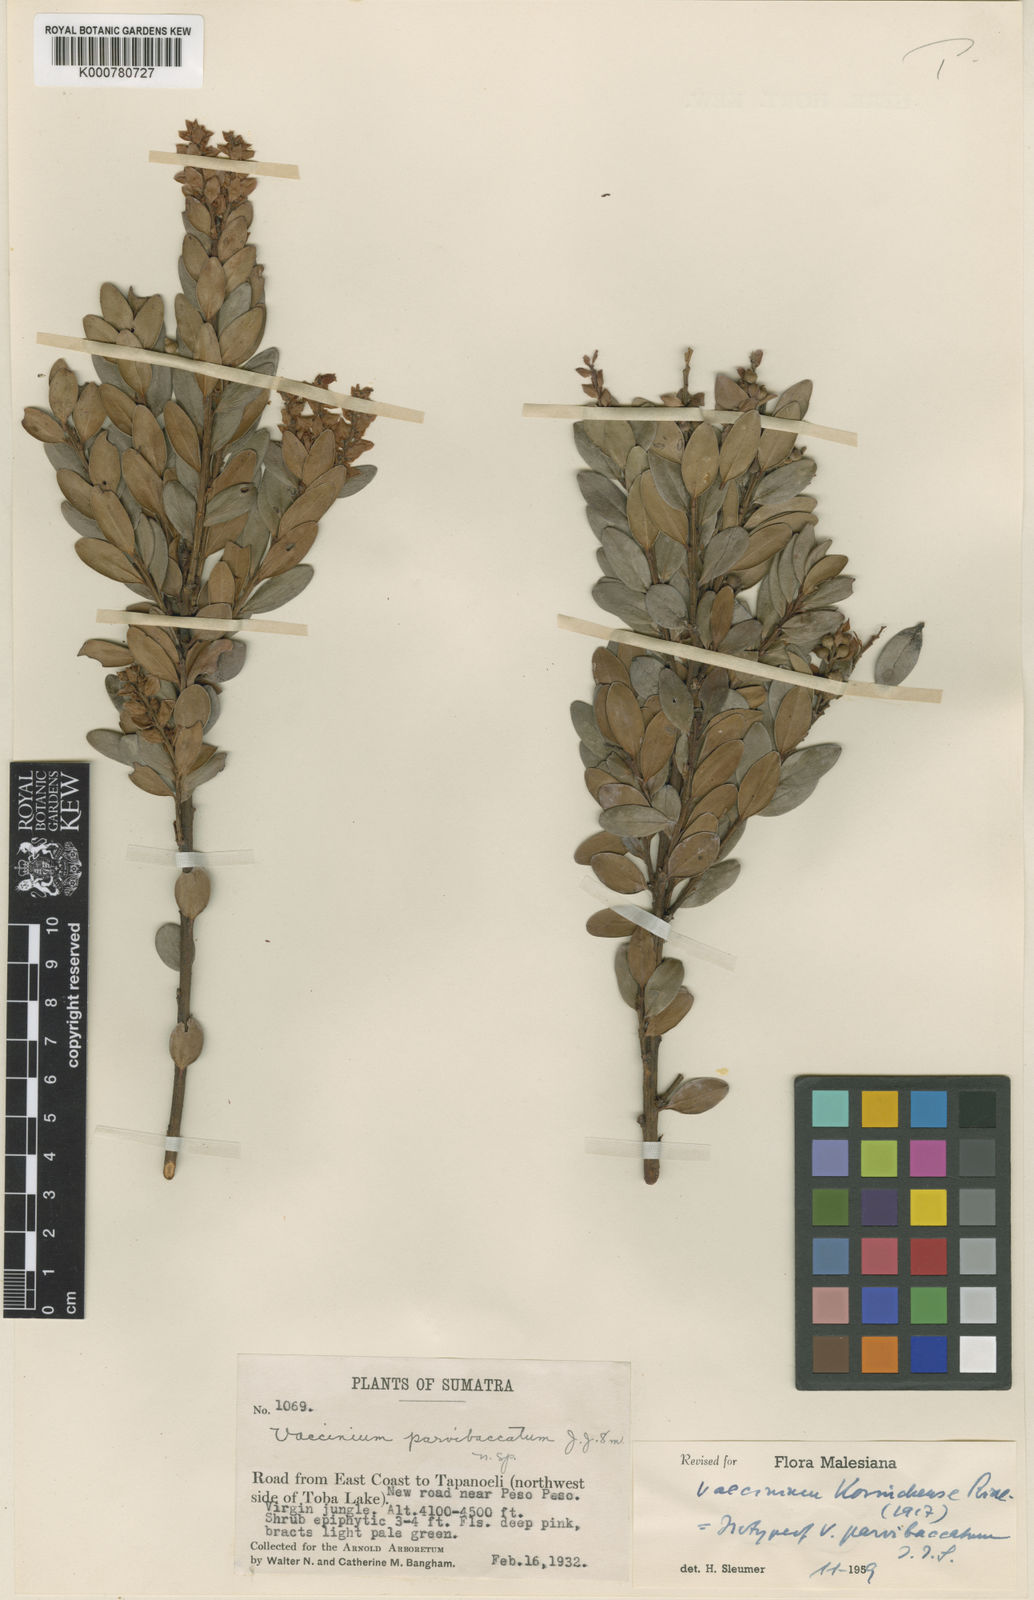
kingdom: Plantae
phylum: Tracheophyta
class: Magnoliopsida
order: Ericales
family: Ericaceae
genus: Vaccinium
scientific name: Vaccinium korinchense
